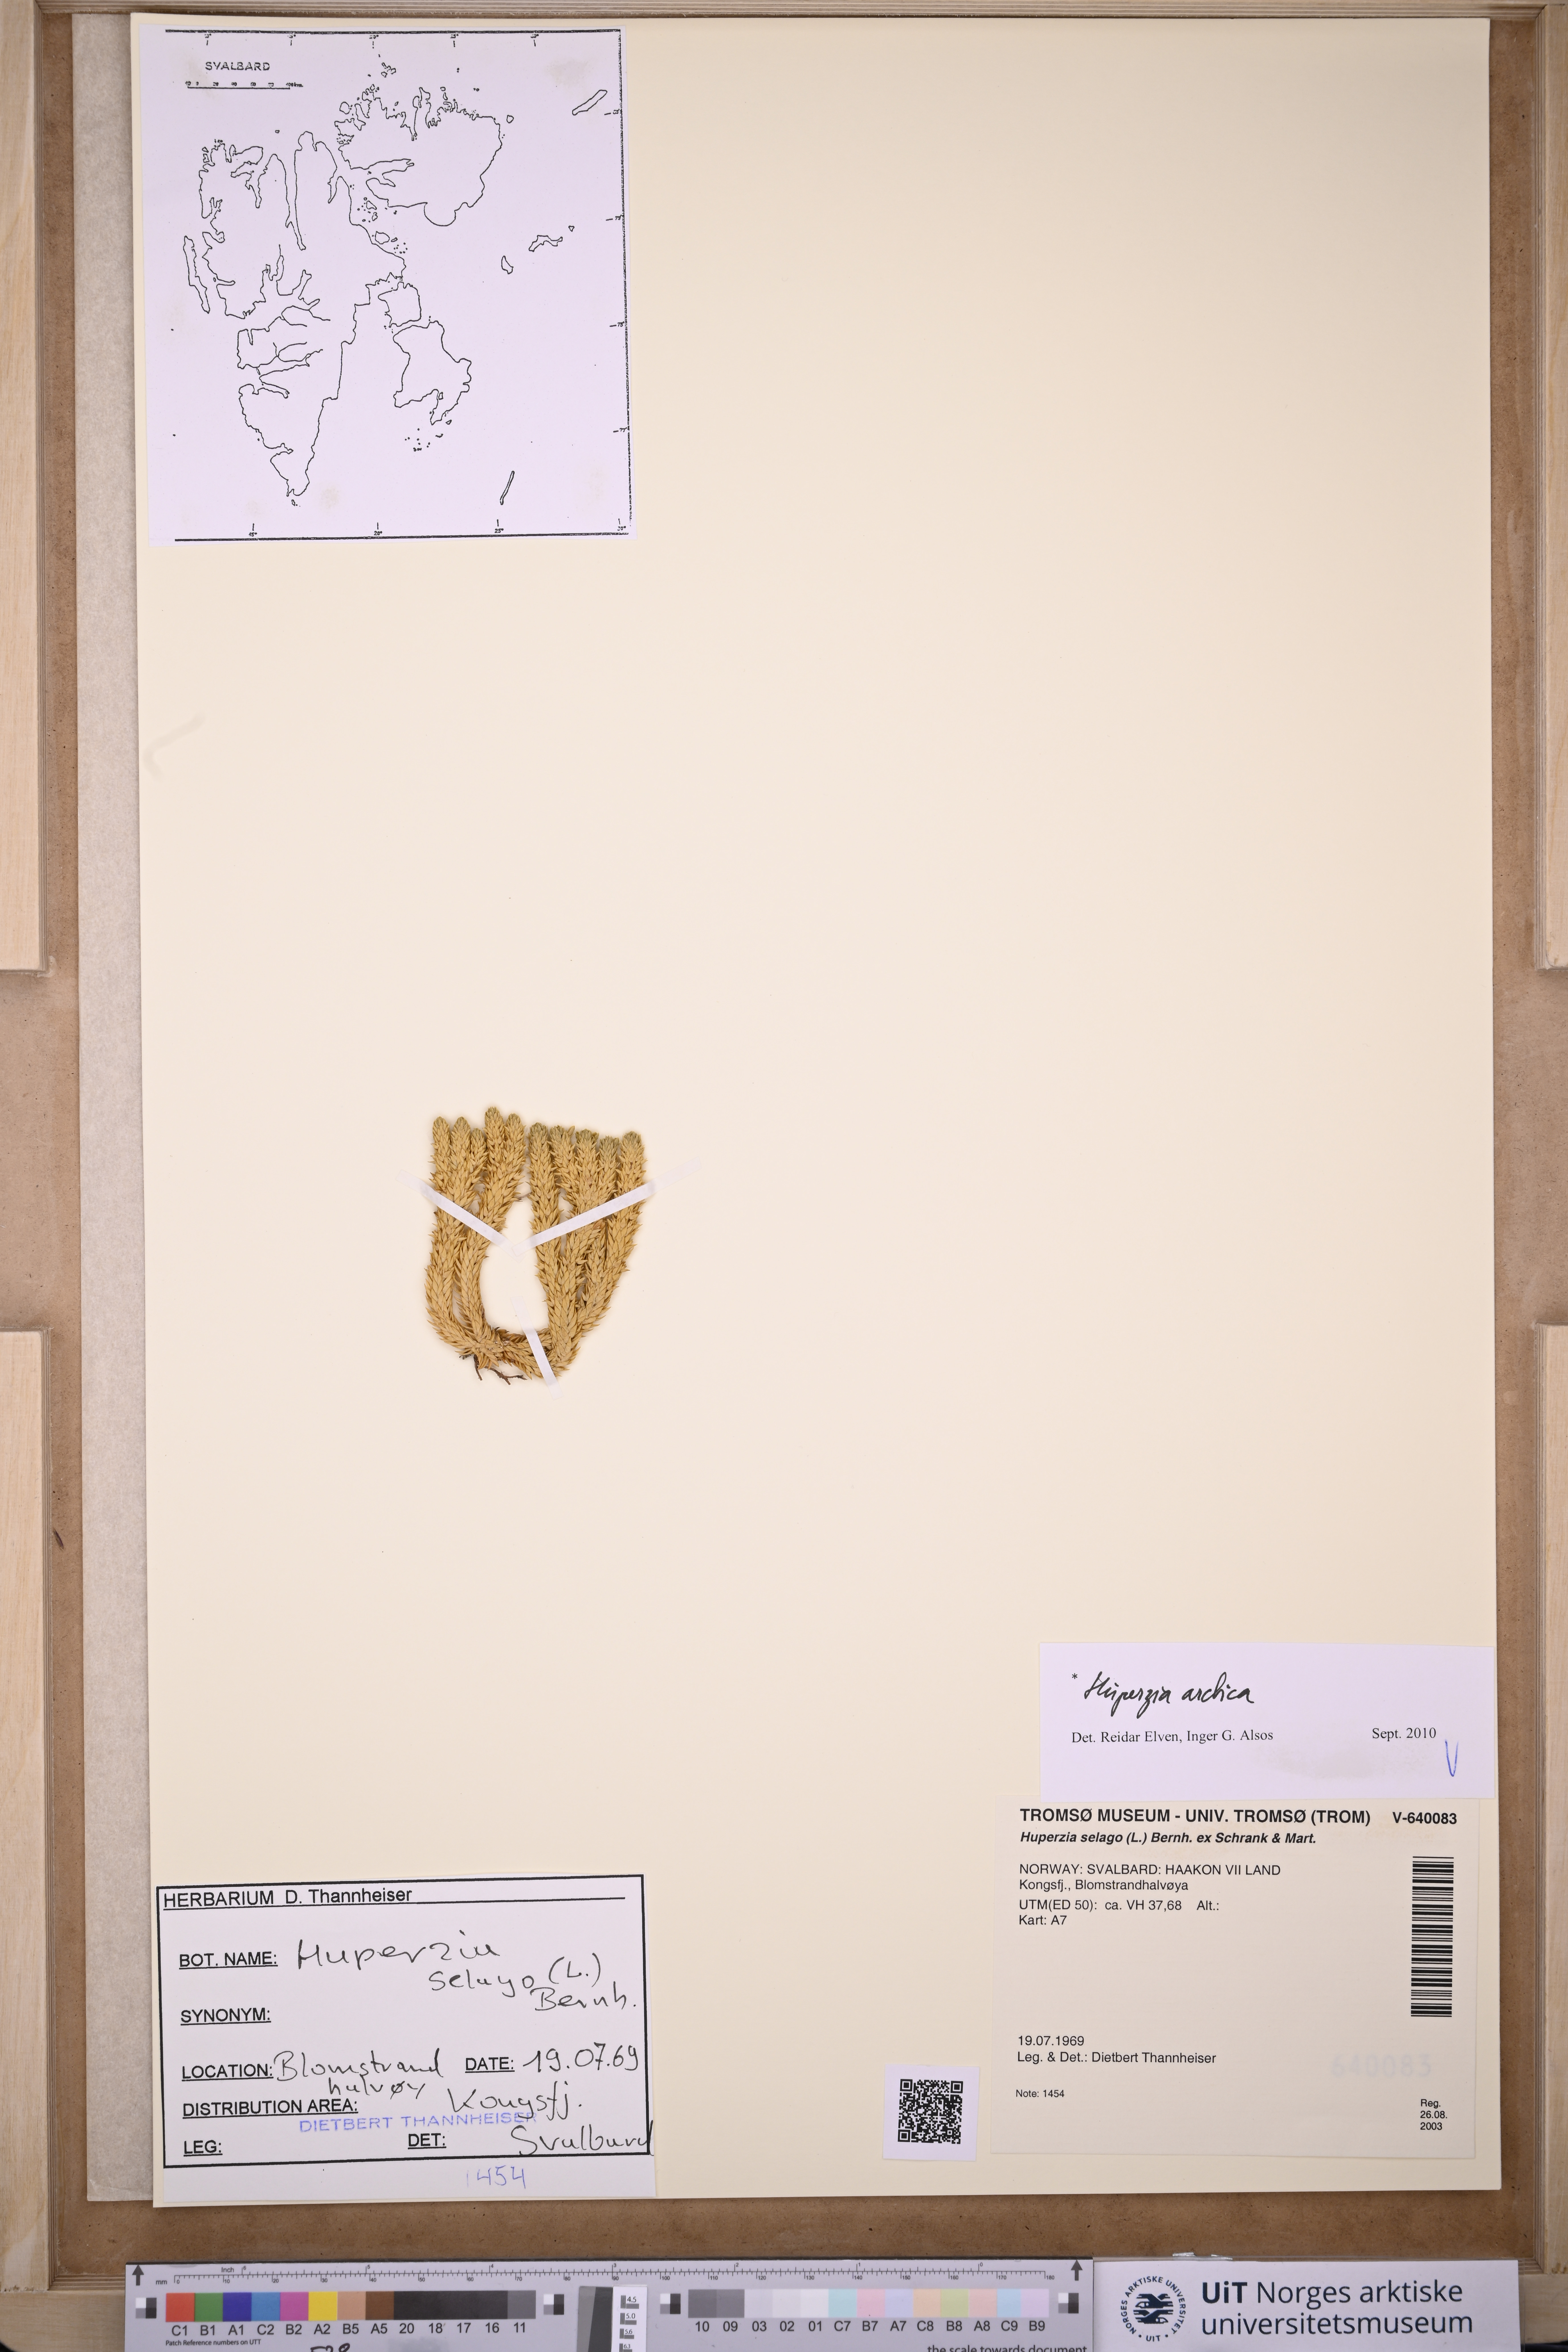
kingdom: Plantae
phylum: Tracheophyta
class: Lycopodiopsida
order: Lycopodiales
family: Lycopodiaceae
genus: Huperzia
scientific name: Huperzia selago
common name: Northern firmoss
